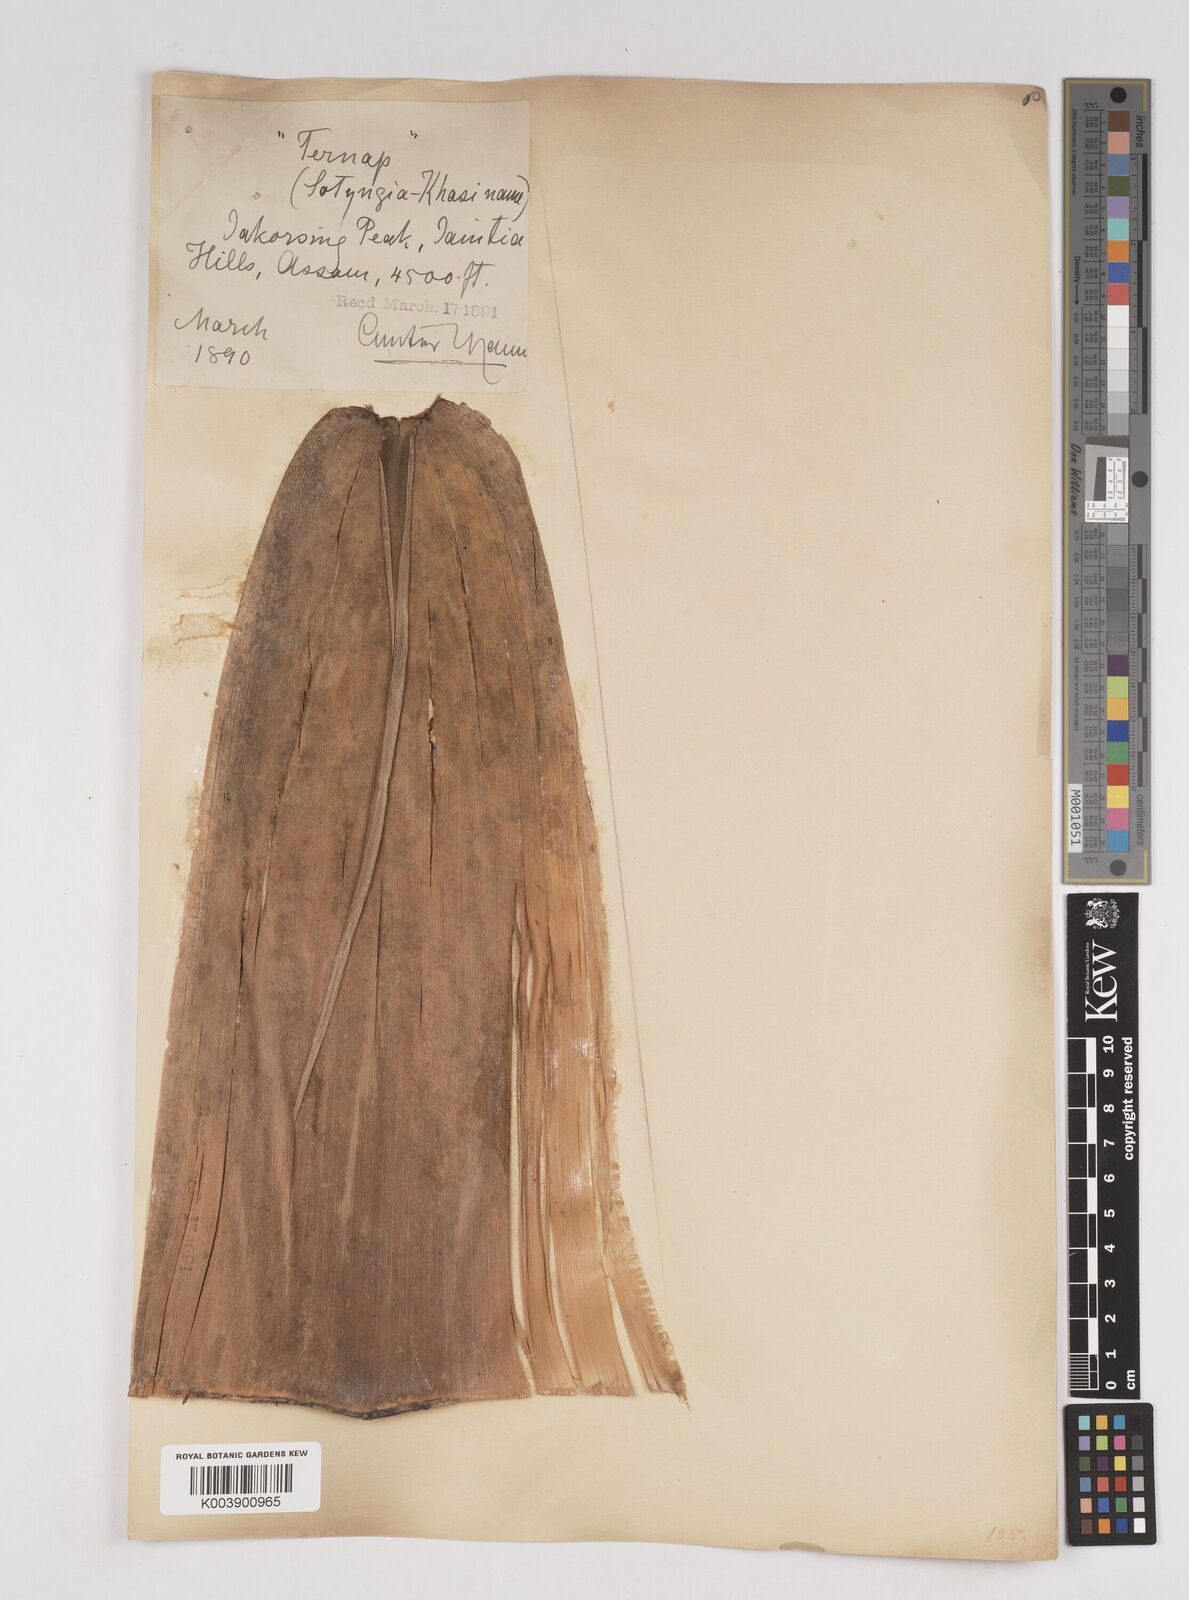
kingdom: Plantae
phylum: Tracheophyta
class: Liliopsida
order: Poales
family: Poaceae
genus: Cephalostachyum
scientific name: Cephalostachyum capitatum
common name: Hollow bamboo
